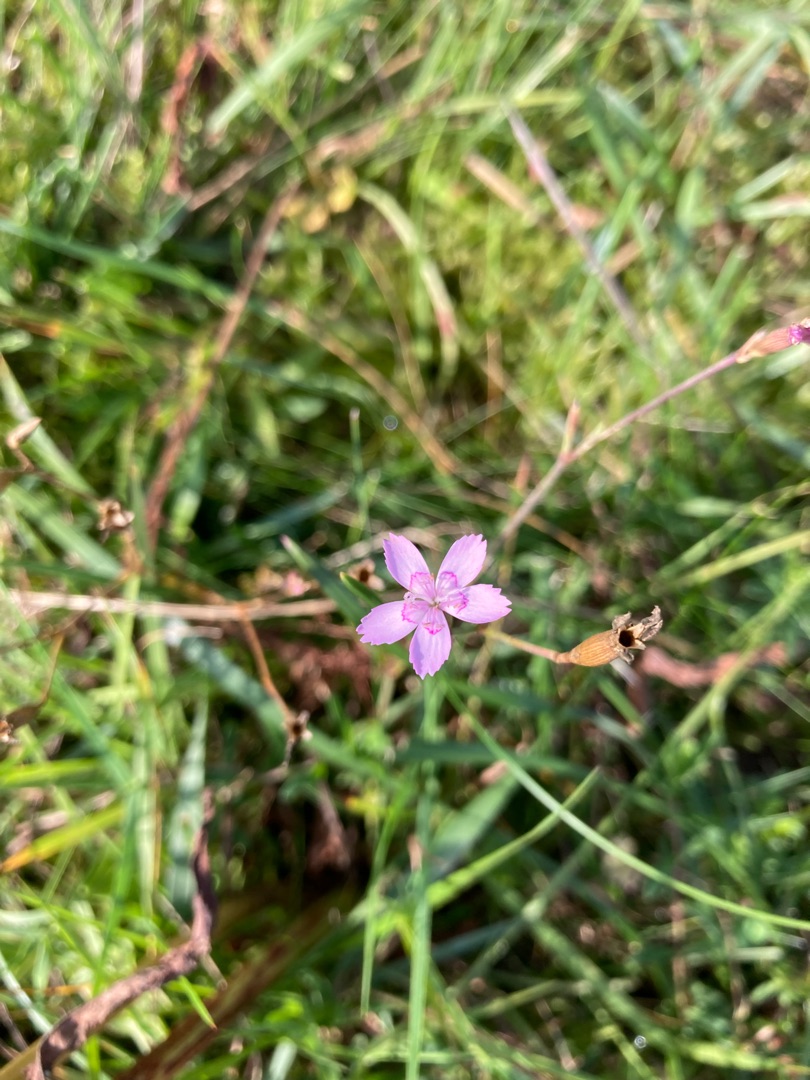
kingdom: Plantae
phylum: Tracheophyta
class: Magnoliopsida
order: Caryophyllales
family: Caryophyllaceae
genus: Dianthus
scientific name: Dianthus deltoides
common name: Bakke-nellike
